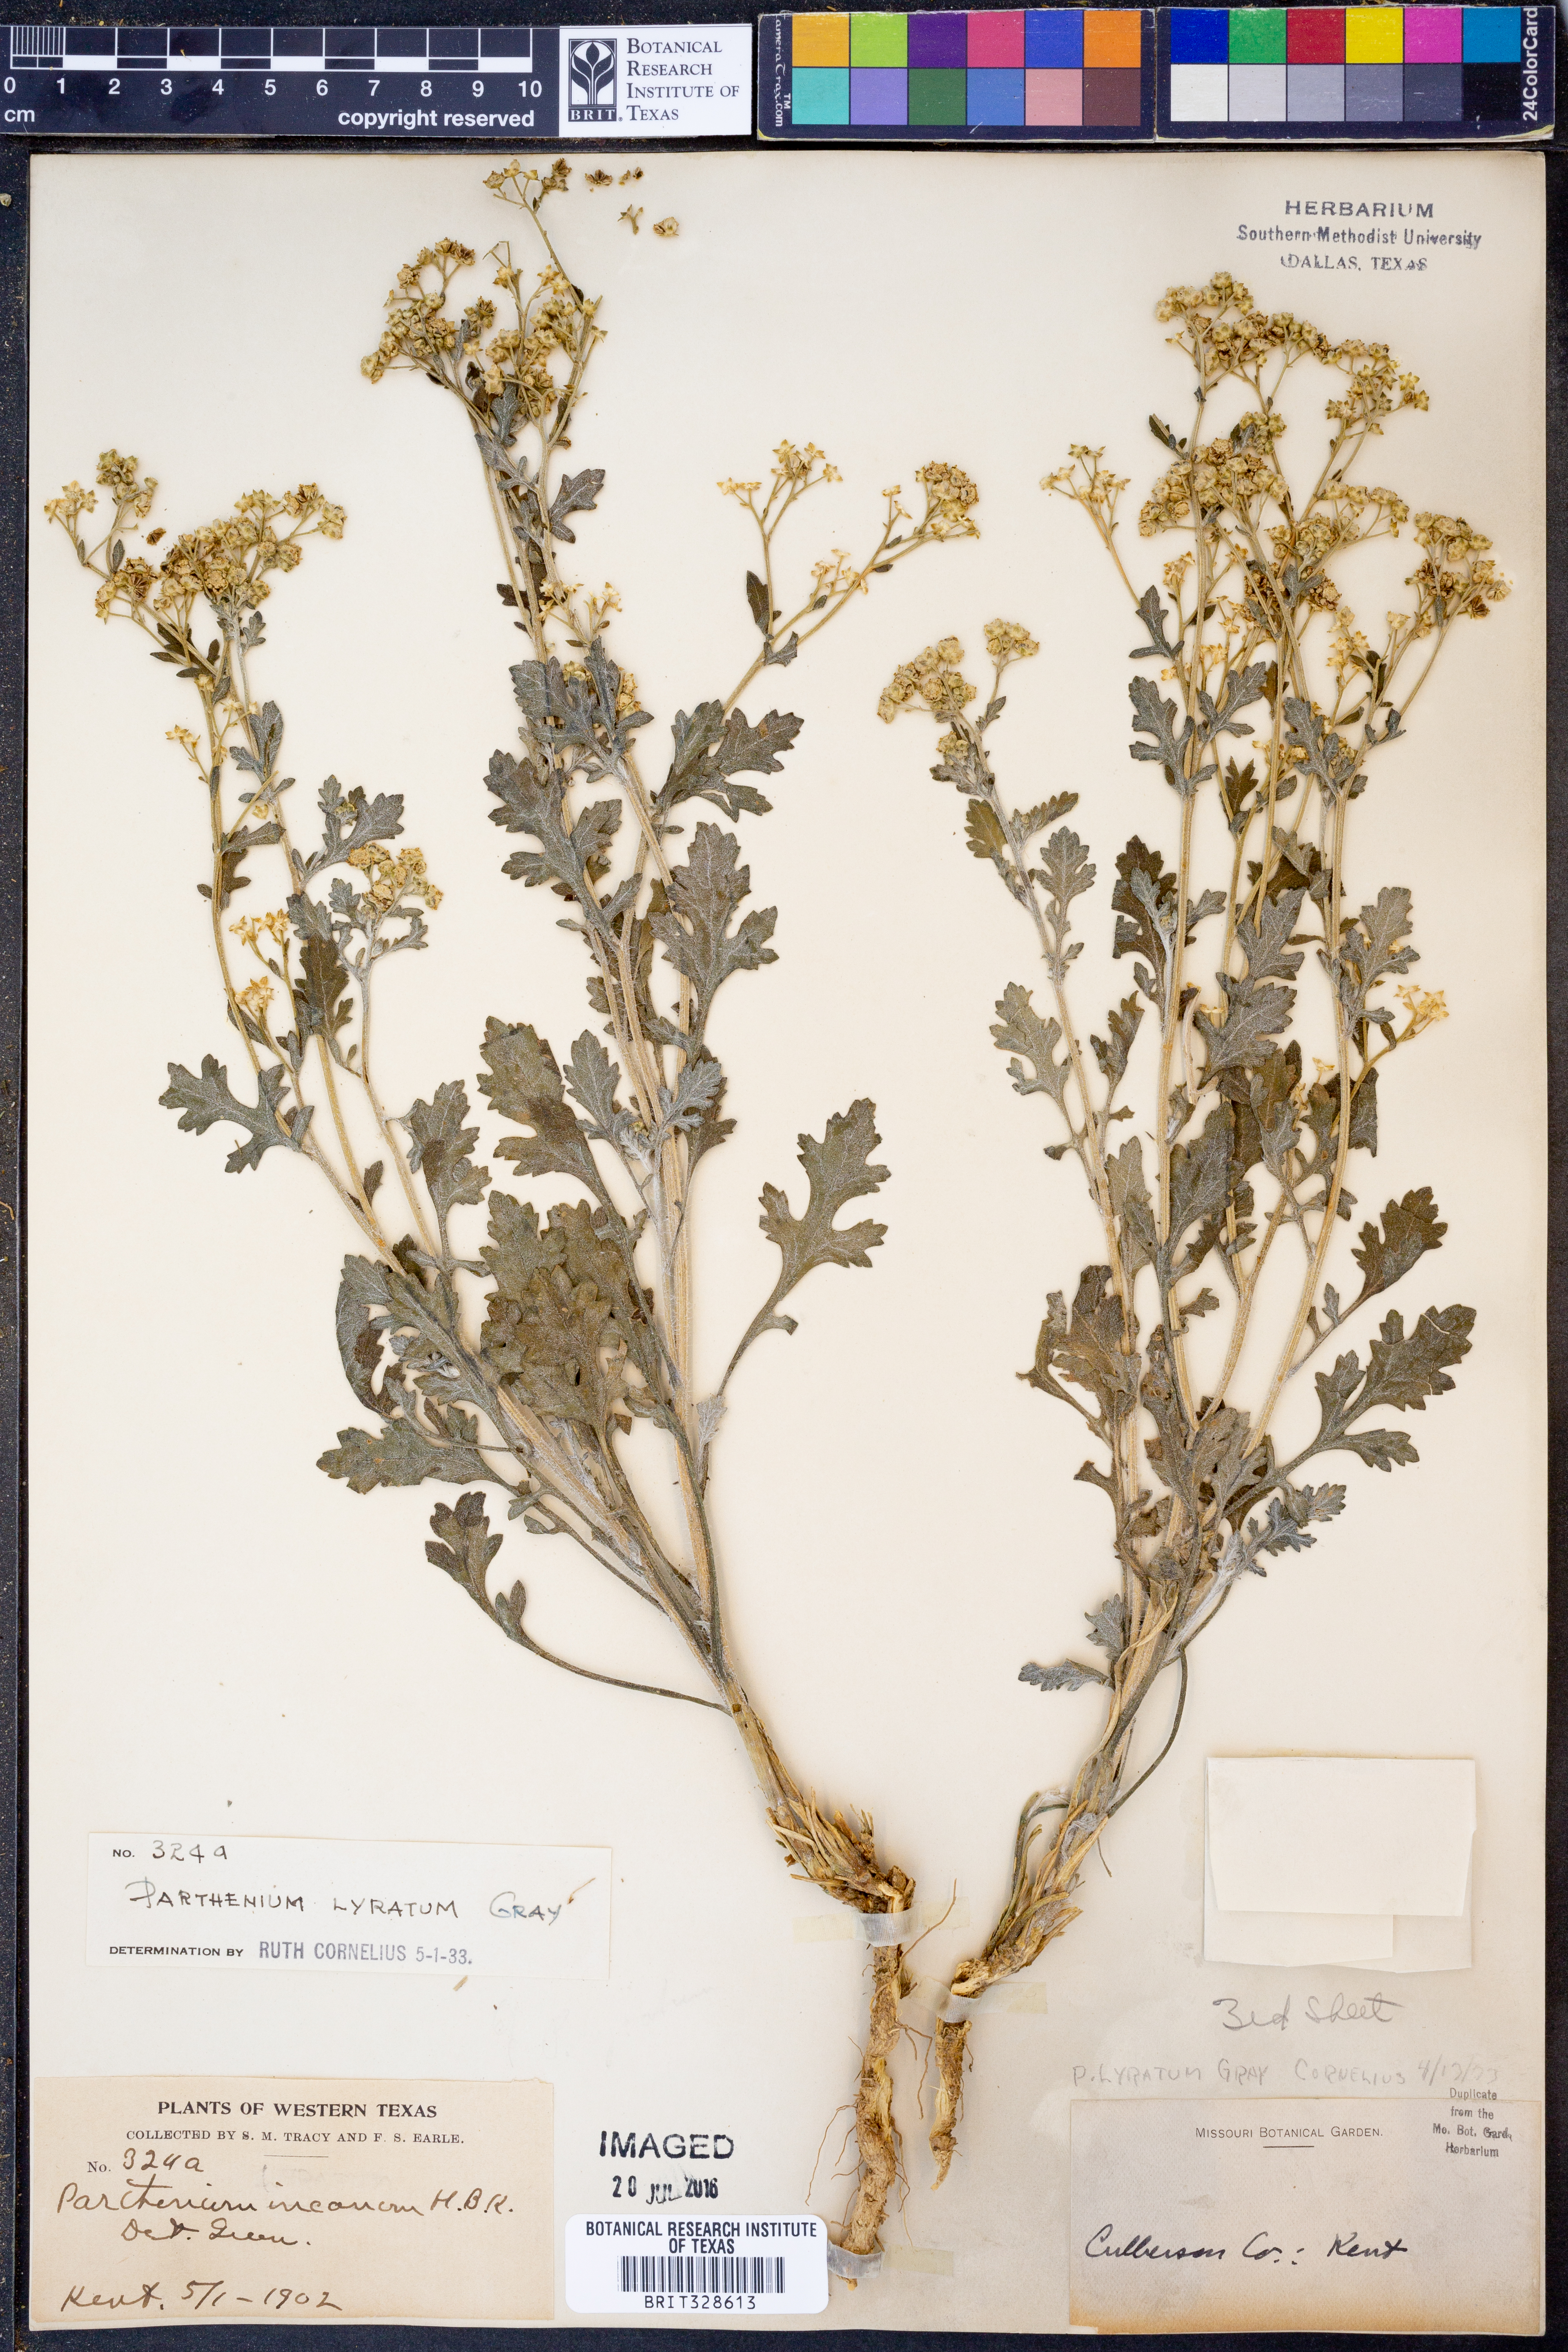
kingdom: Plantae
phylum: Tracheophyta
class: Magnoliopsida
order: Asterales
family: Asteraceae
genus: Parthenium
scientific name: Parthenium confertum
